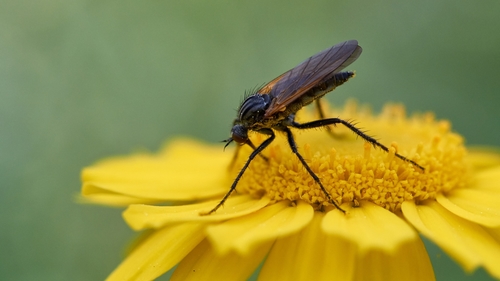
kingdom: Animalia
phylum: Arthropoda
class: Insecta
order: Diptera
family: Empididae
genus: Empis
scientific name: Empis
